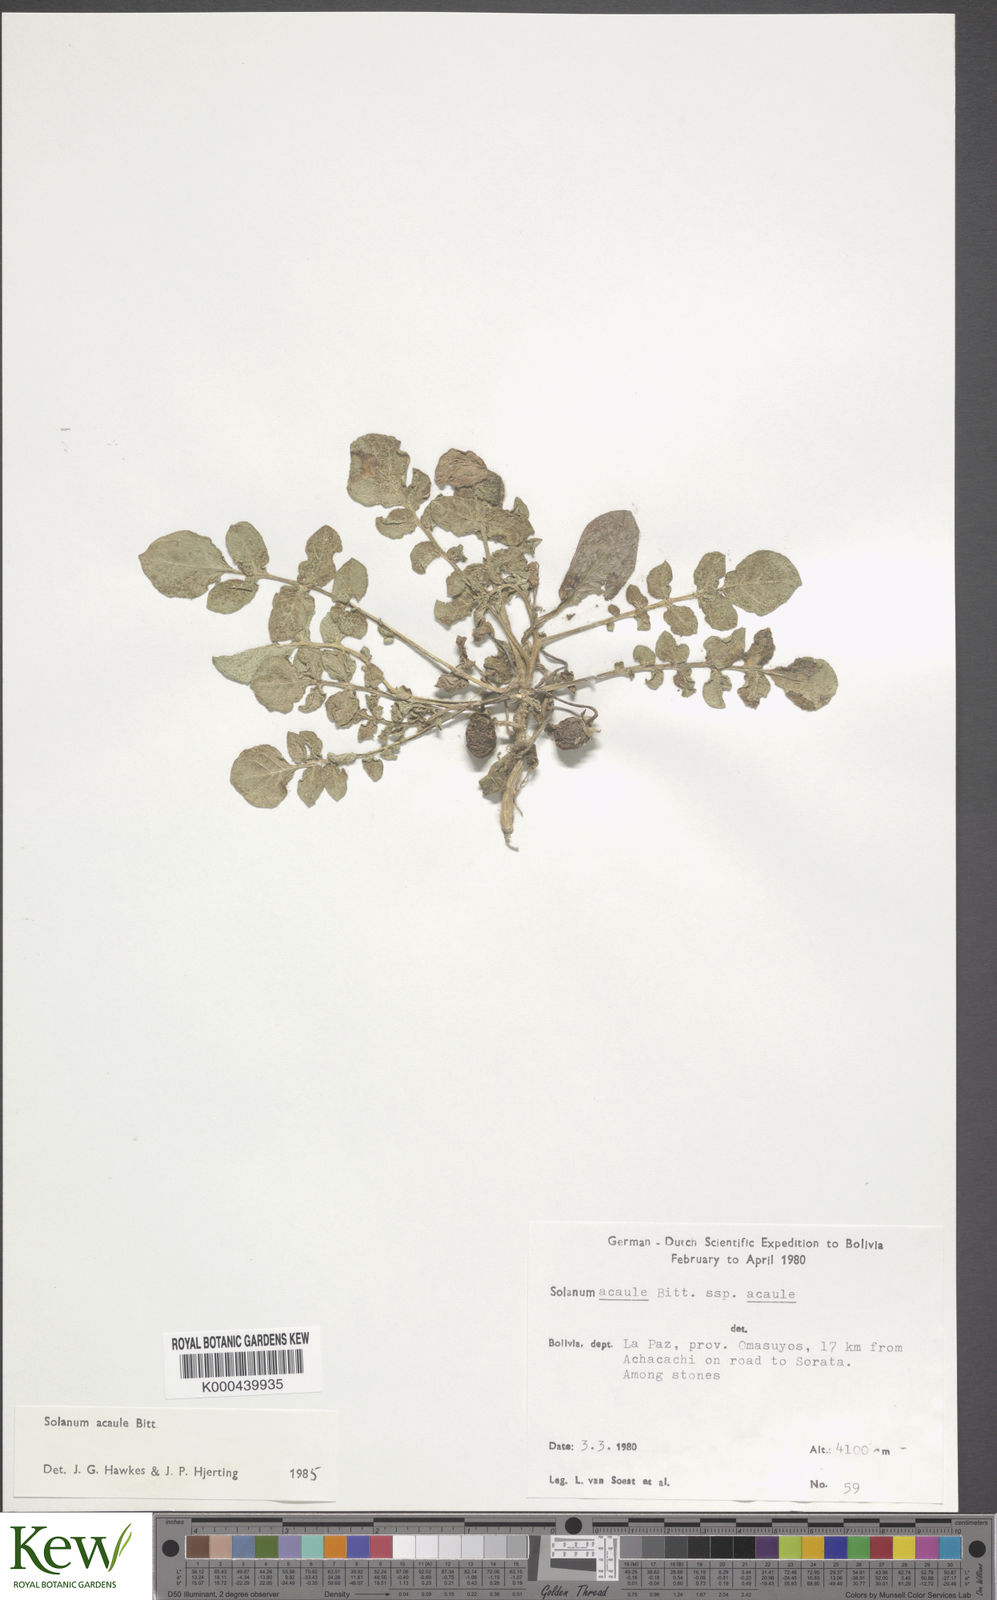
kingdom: Plantae
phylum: Tracheophyta
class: Magnoliopsida
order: Solanales
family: Solanaceae
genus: Solanum
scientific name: Solanum acaule
